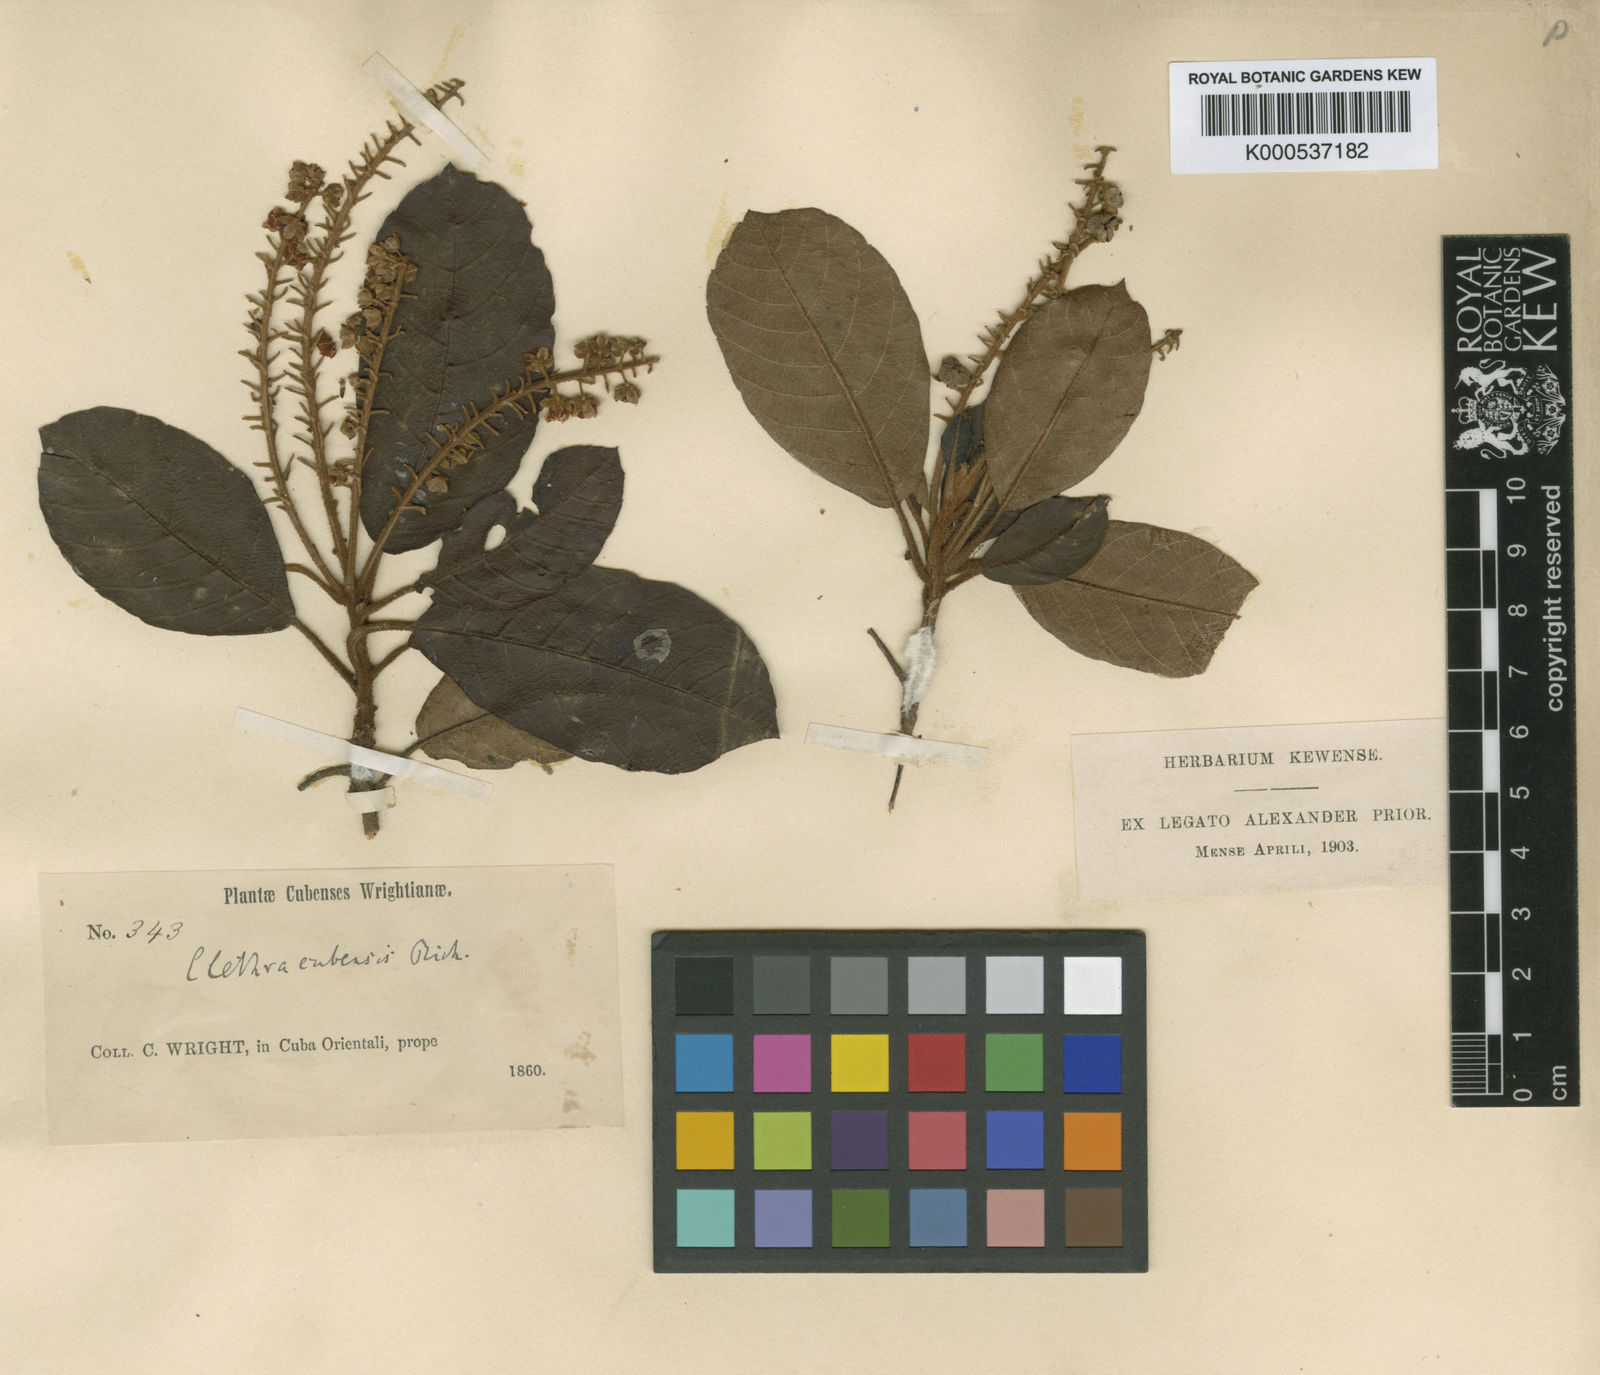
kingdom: Plantae
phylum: Tracheophyta
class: Magnoliopsida
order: Ericales
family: Clethraceae
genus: Clethra
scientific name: Clethra cubensis
